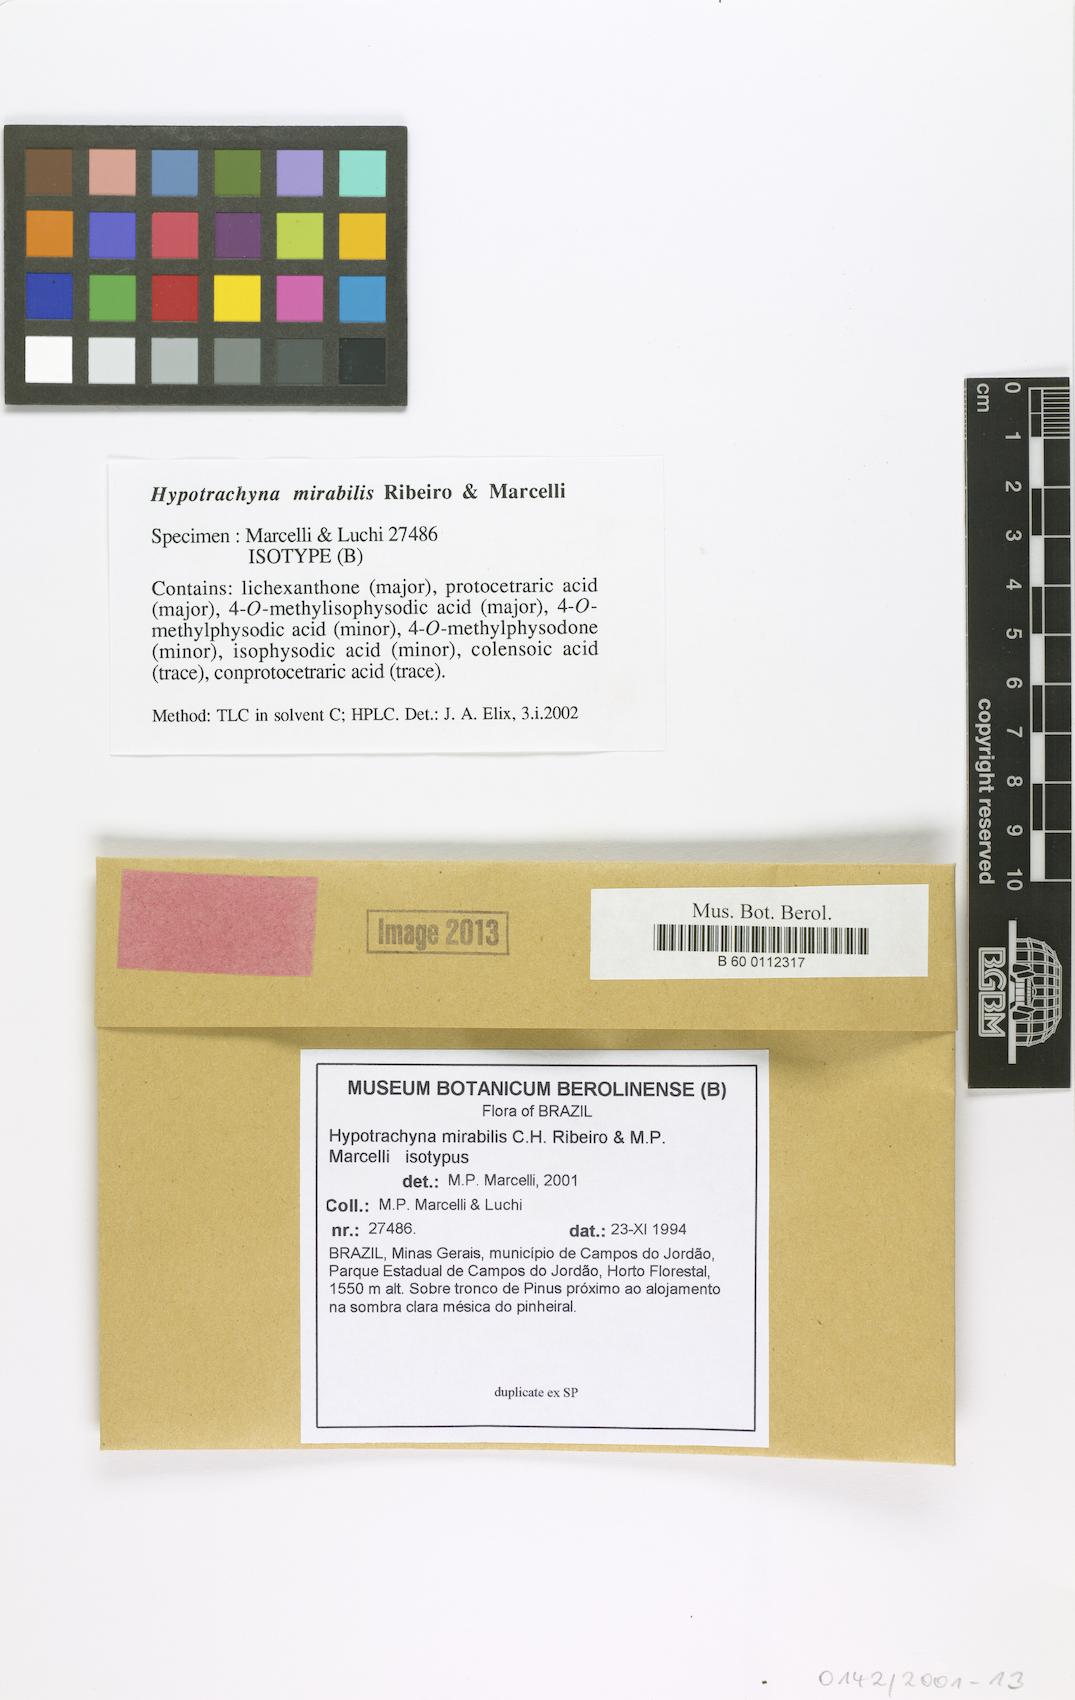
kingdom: Fungi
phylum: Ascomycota
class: Lecanoromycetes
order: Lecanorales
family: Parmeliaceae
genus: Hypotrachyna
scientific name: Hypotrachyna mirabilis
